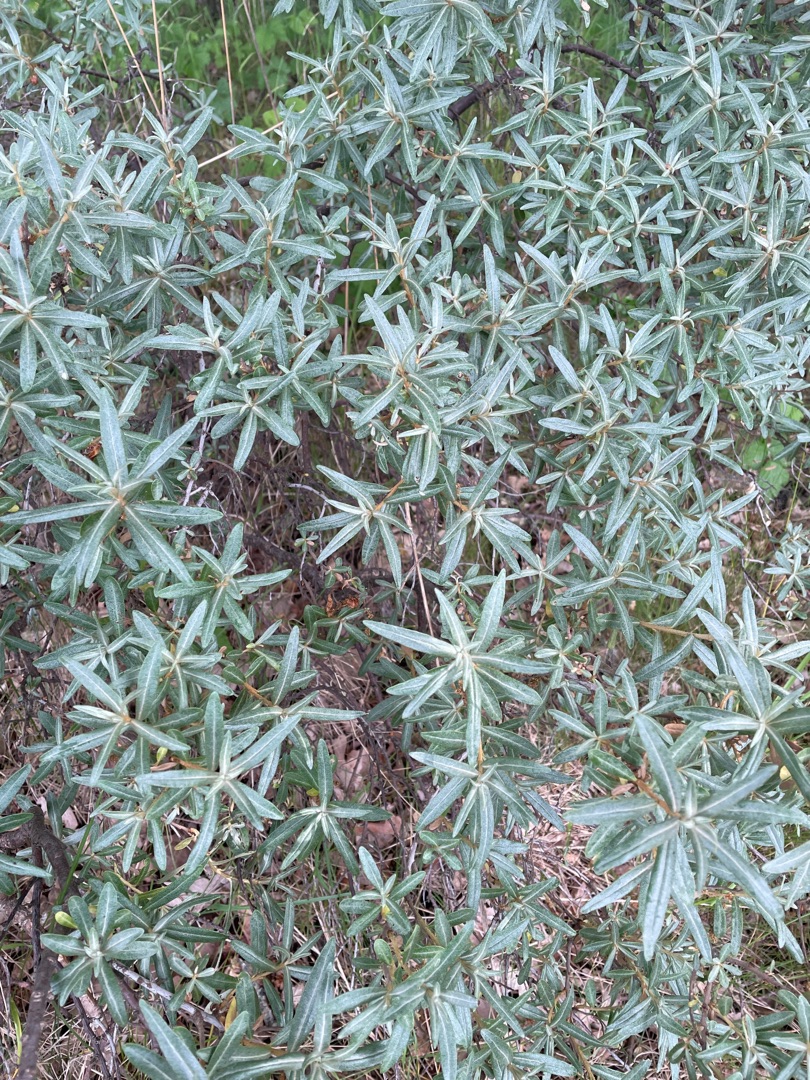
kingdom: Plantae
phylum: Tracheophyta
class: Magnoliopsida
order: Rosales
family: Elaeagnaceae
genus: Hippophae
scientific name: Hippophae rhamnoides
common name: Havtorn
